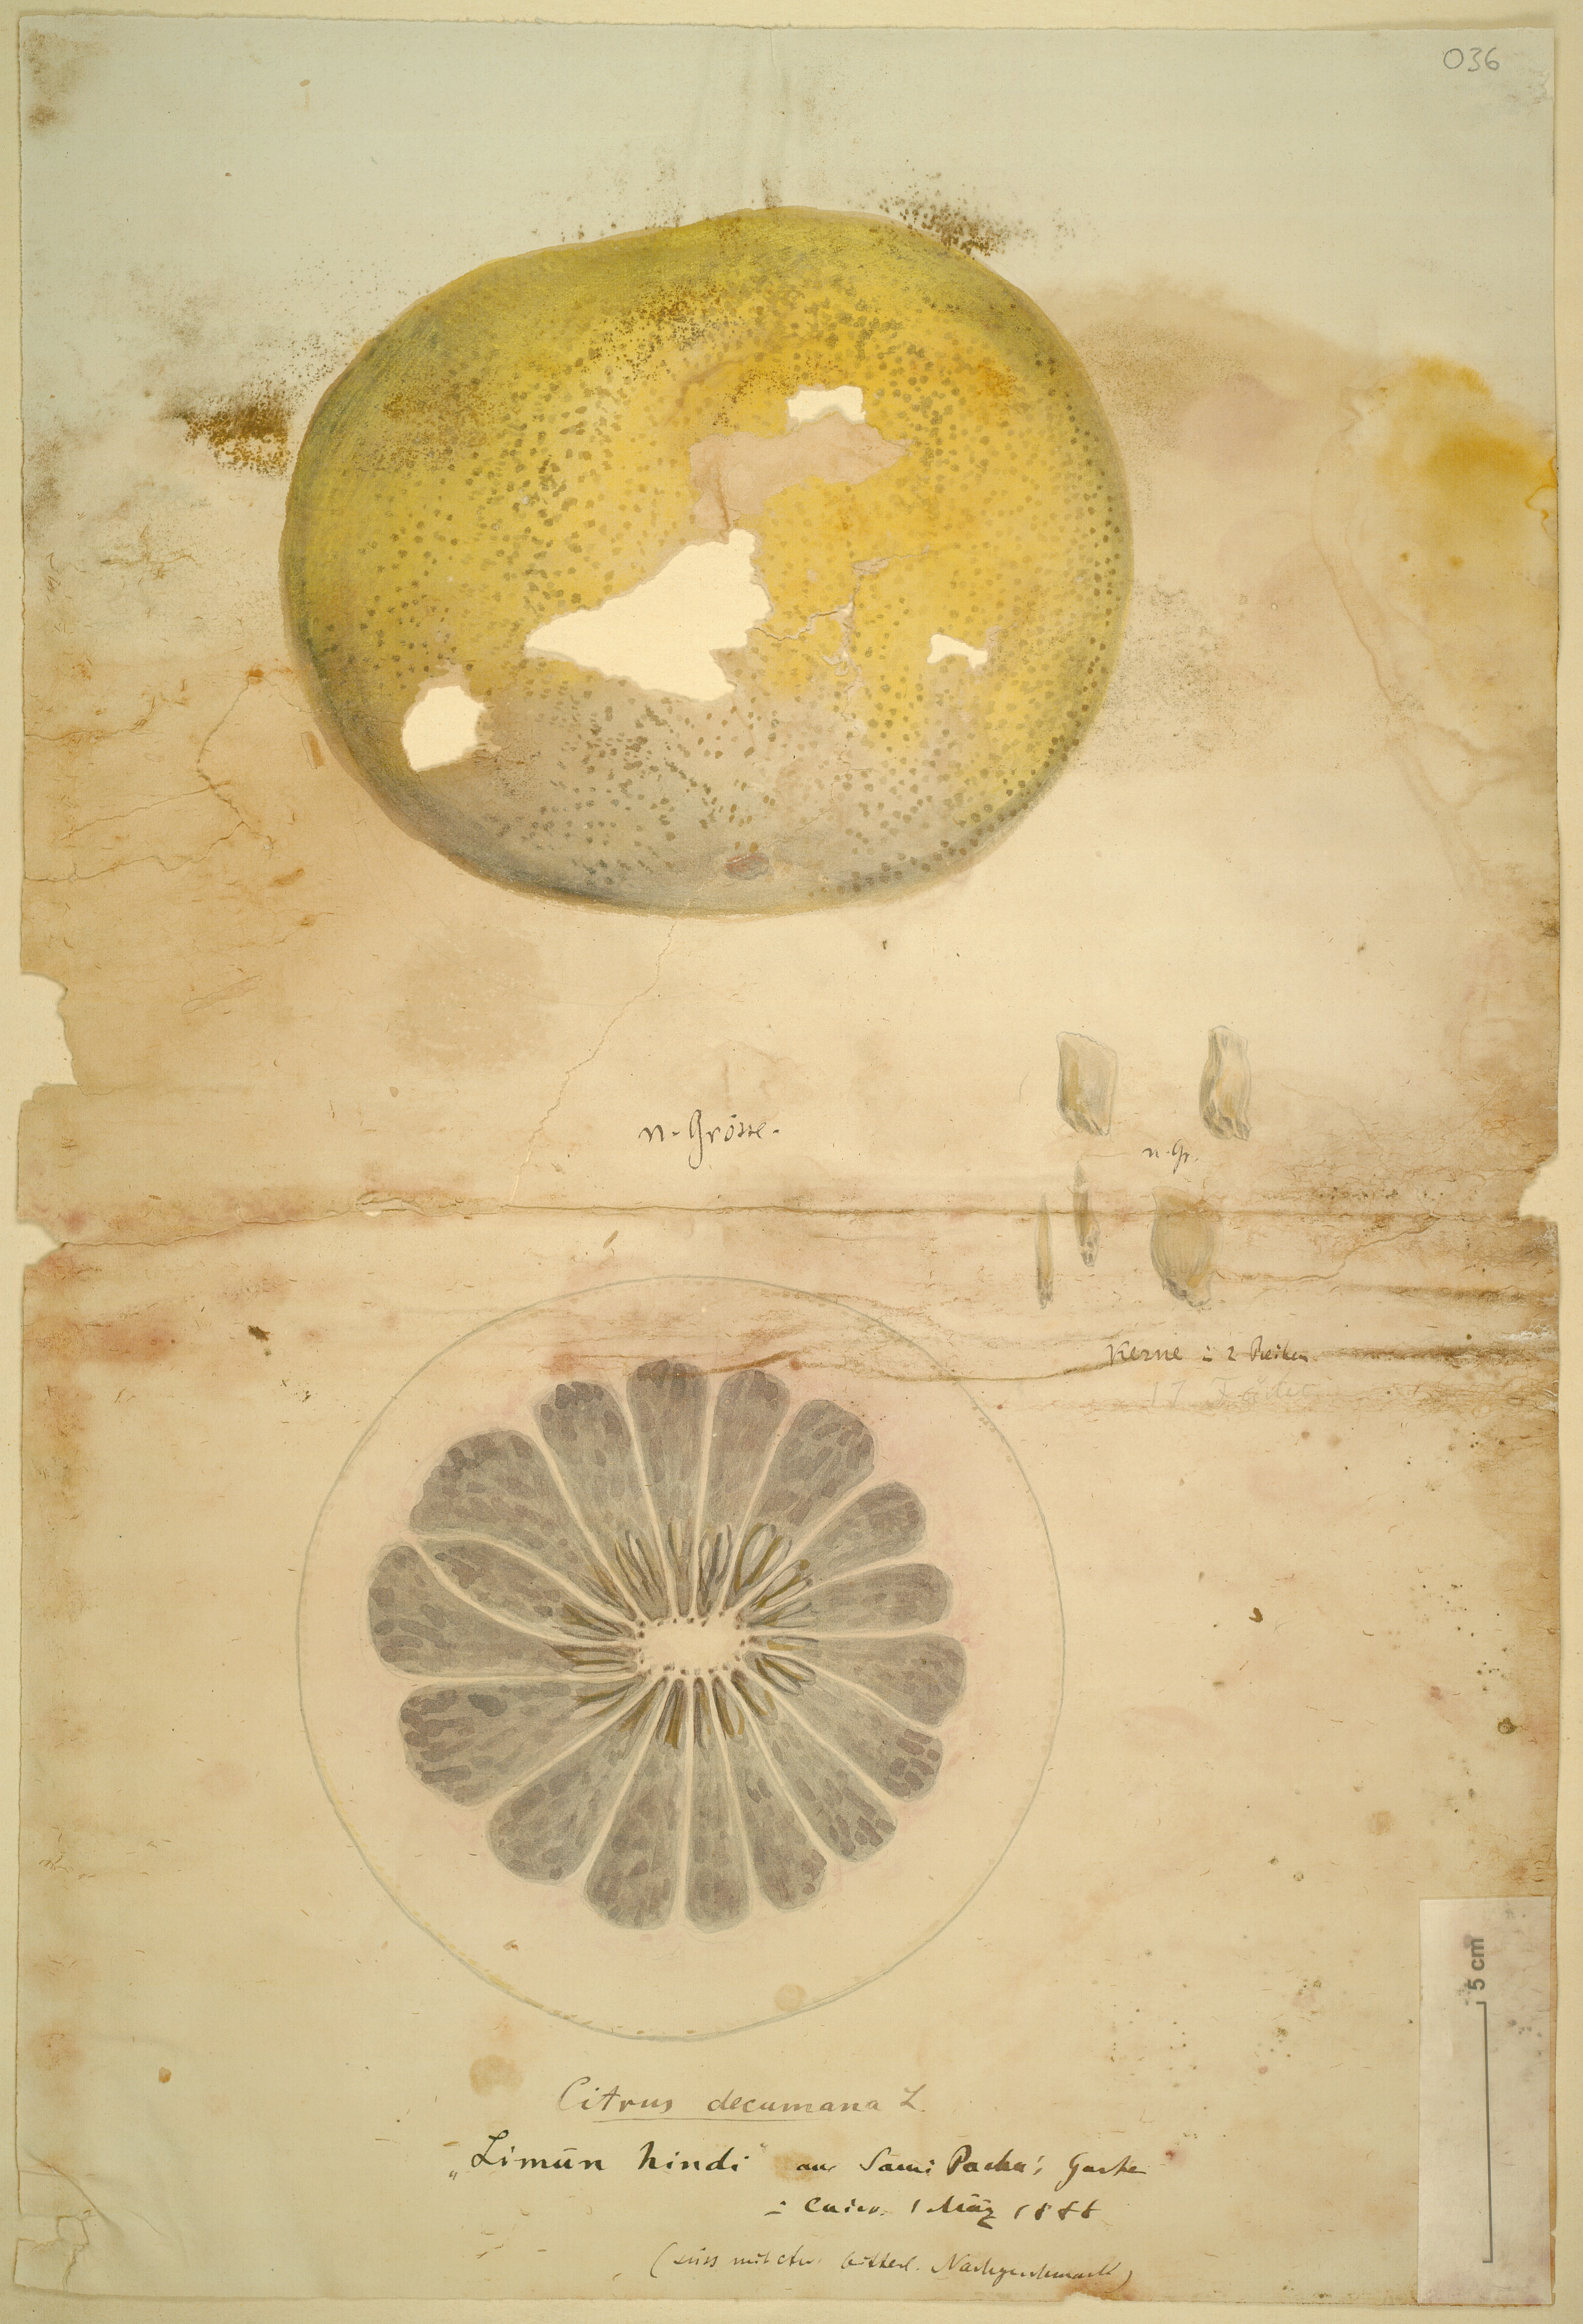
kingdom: Plantae
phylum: Tracheophyta
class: Magnoliopsida
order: Sapindales
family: Rutaceae
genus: Citrus
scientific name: Citrus maxima
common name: Pomelo
